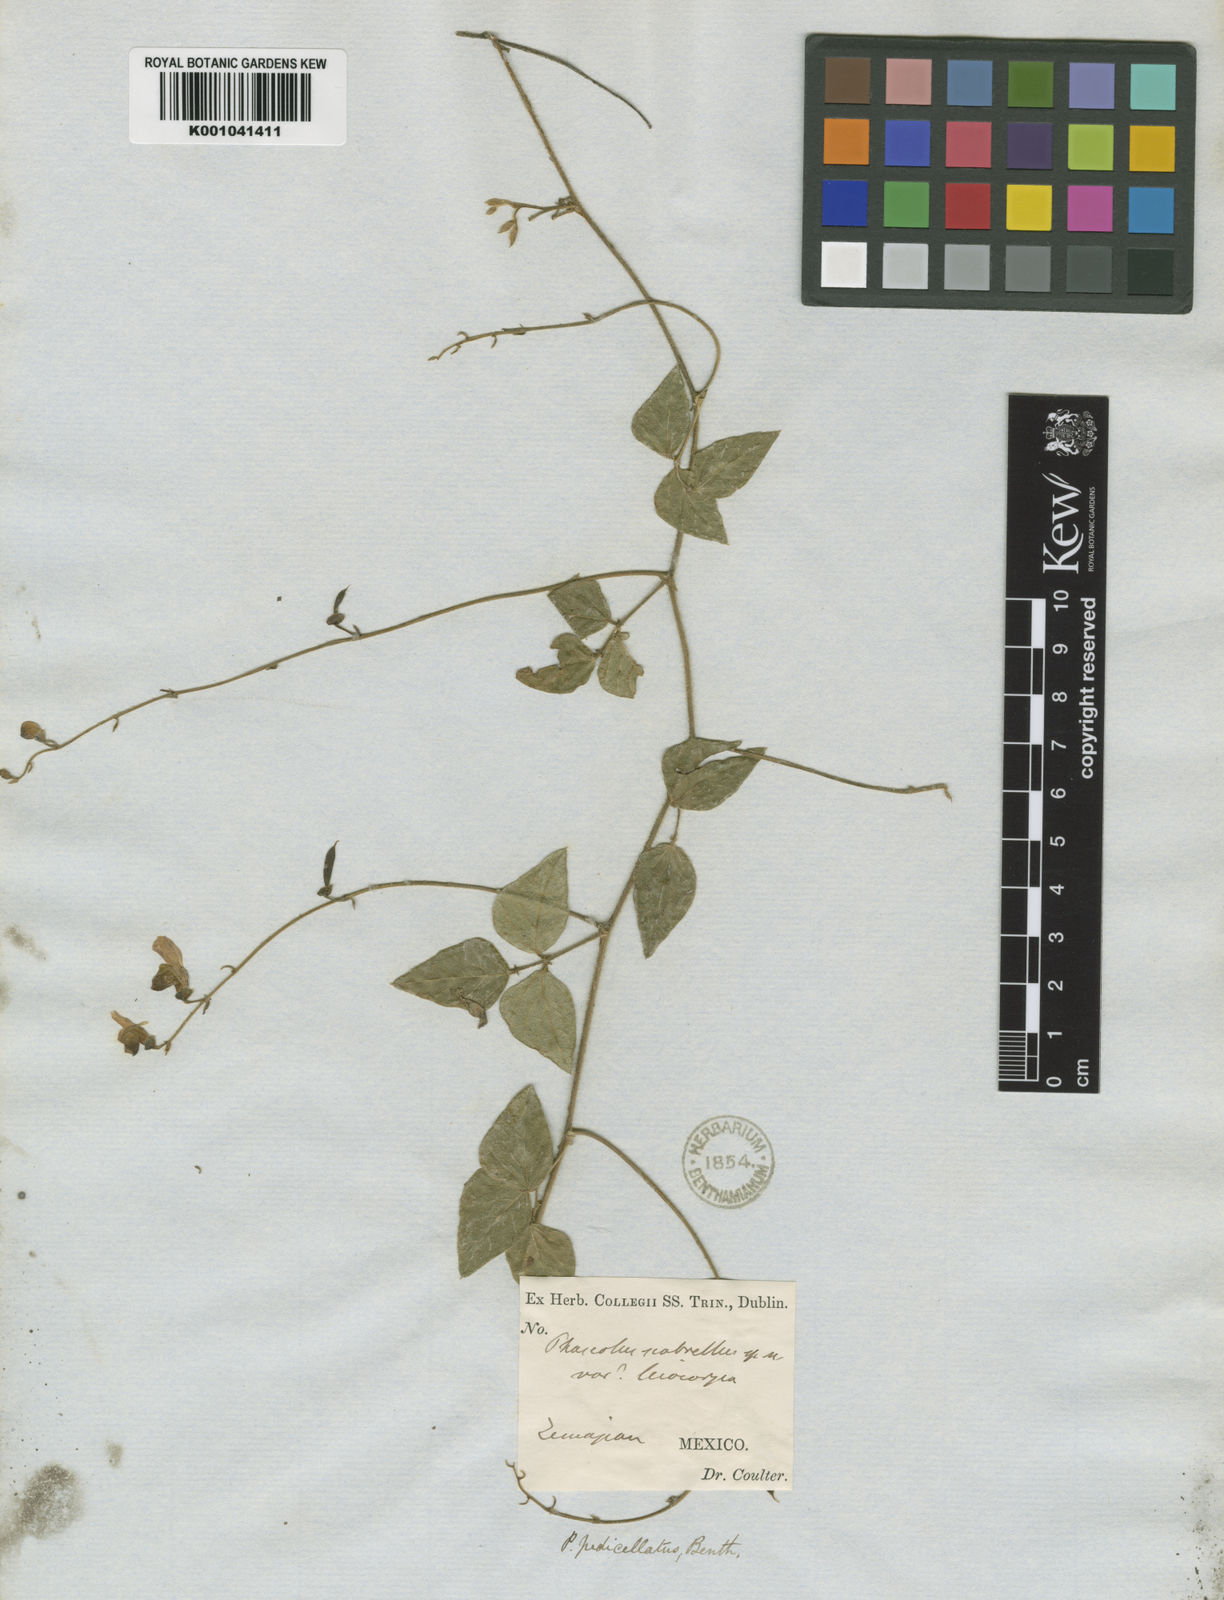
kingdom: Plantae
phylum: Tracheophyta
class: Magnoliopsida
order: Fabales
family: Fabaceae
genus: Phaseolus
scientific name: Phaseolus pedicellatus
